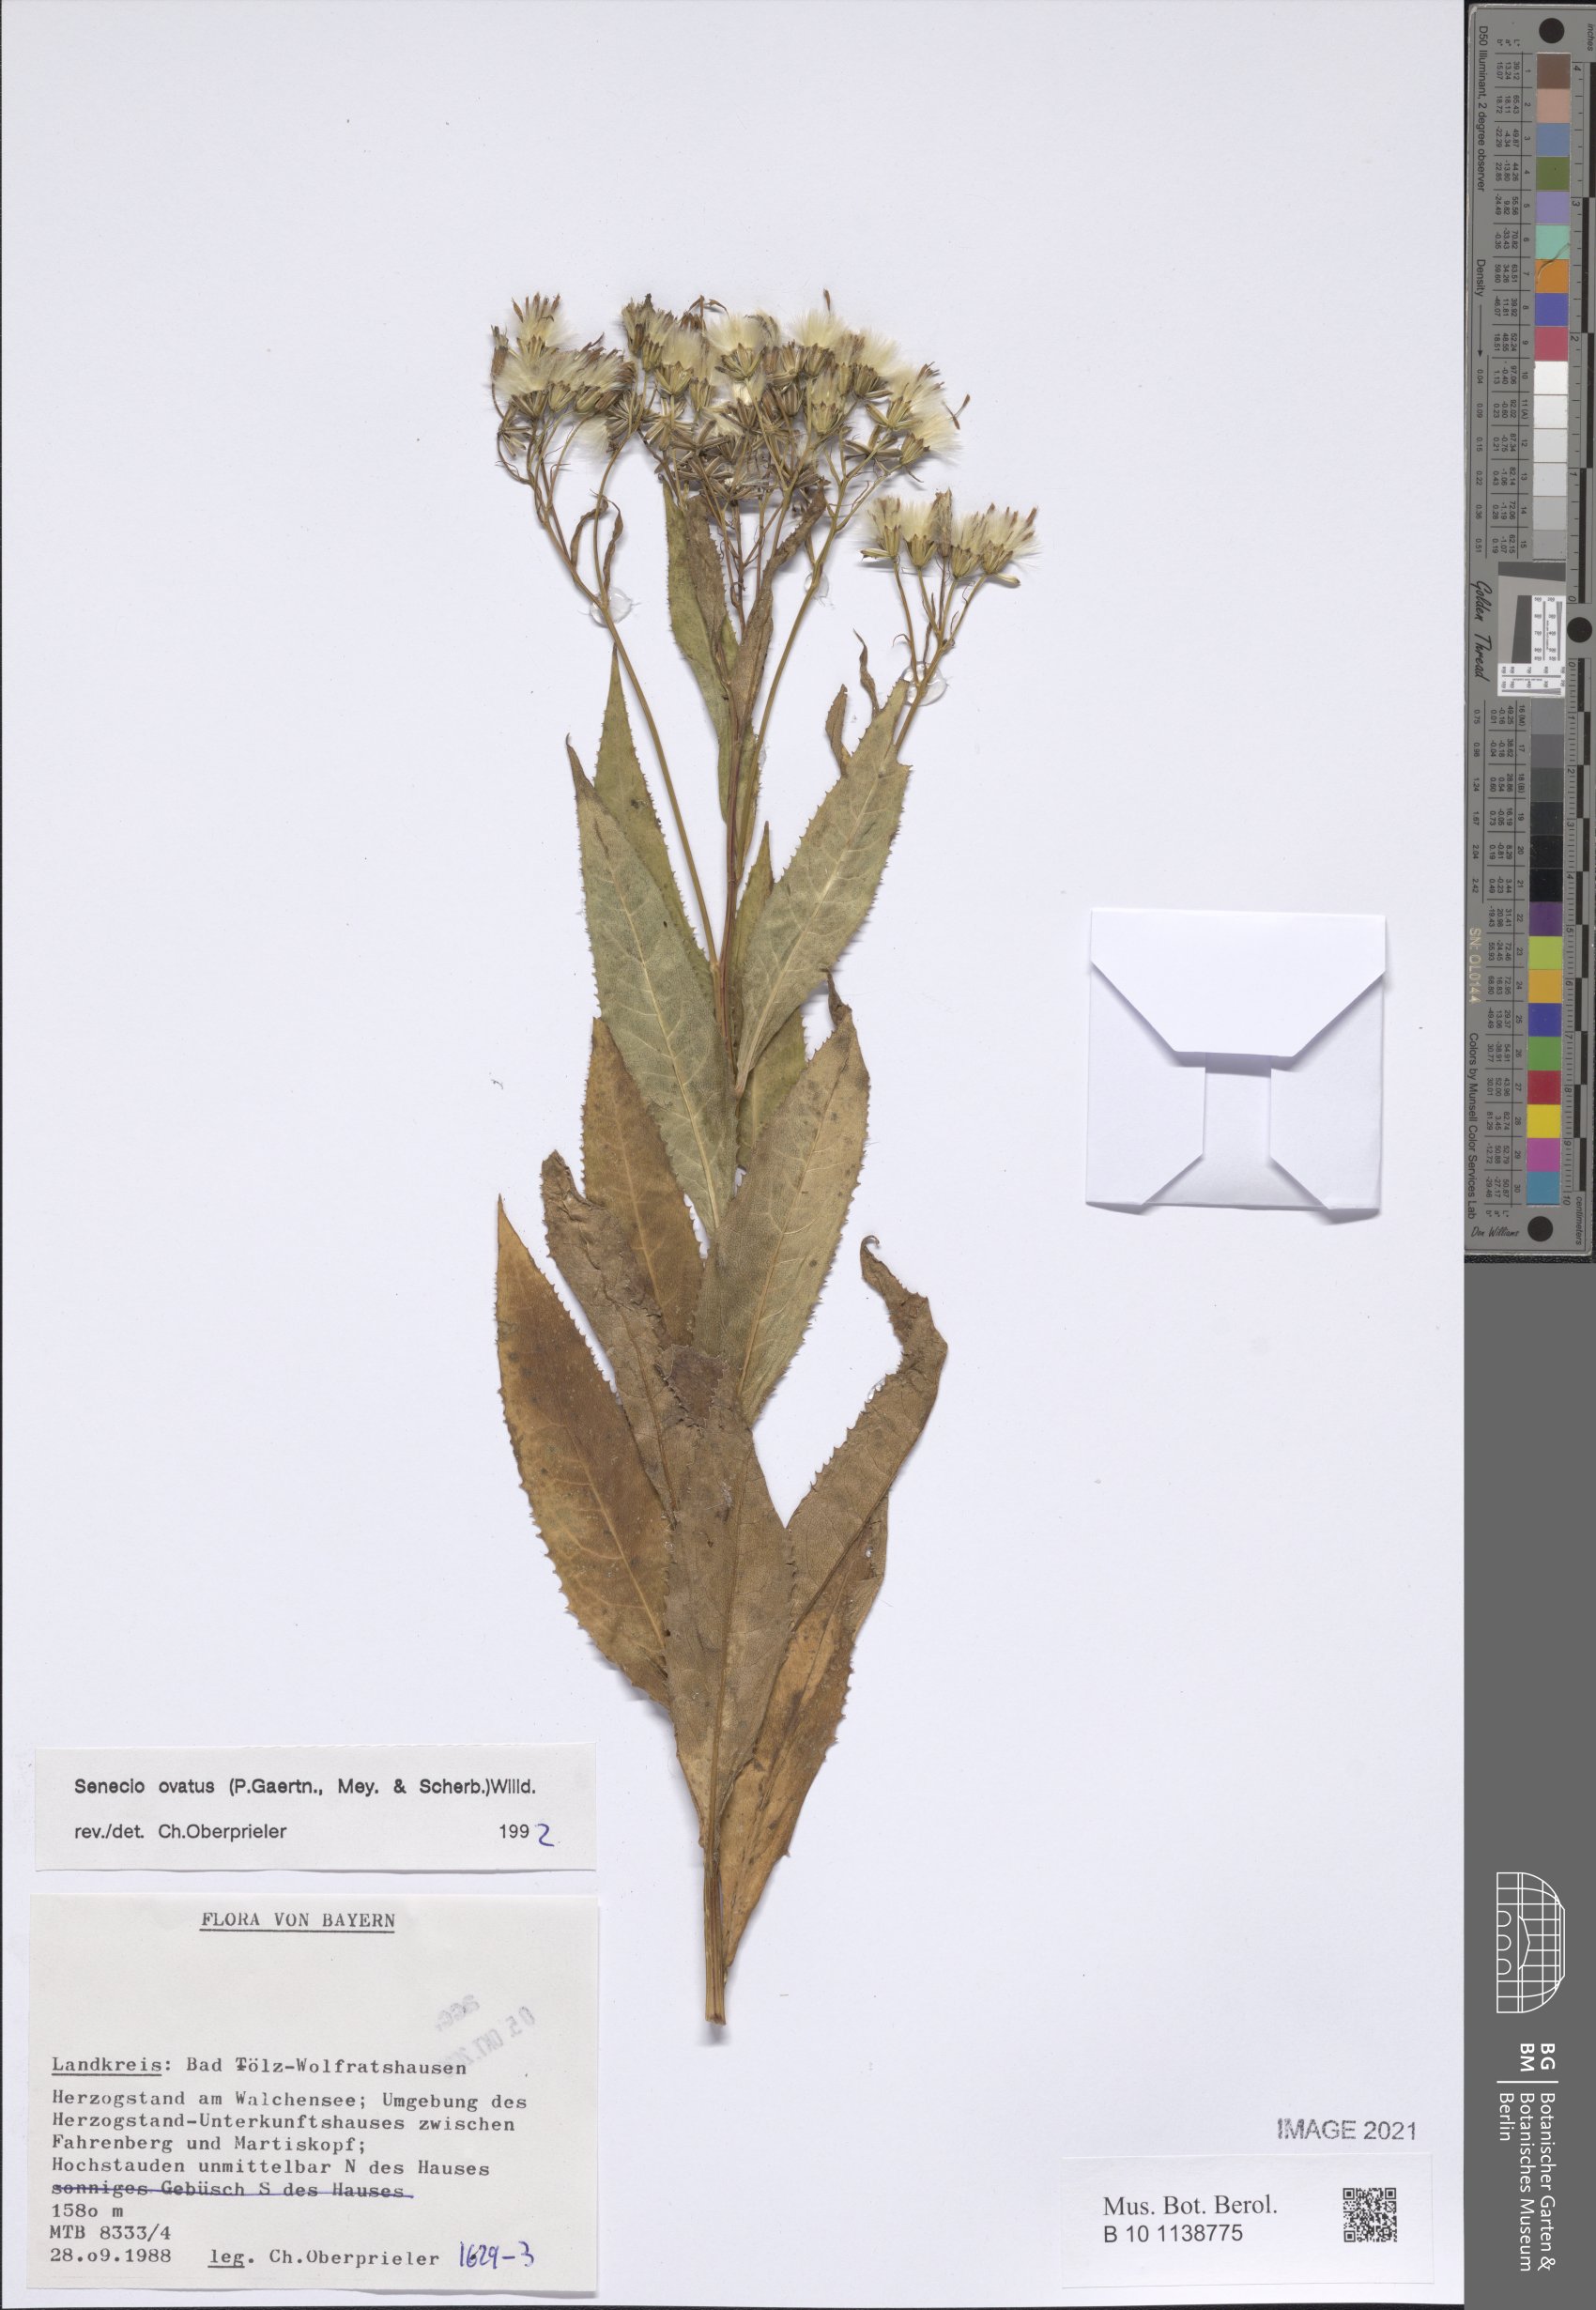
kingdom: Plantae
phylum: Tracheophyta
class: Magnoliopsida
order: Asterales
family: Asteraceae
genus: Senecio
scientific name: Senecio ovatus
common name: Wood ragwort
